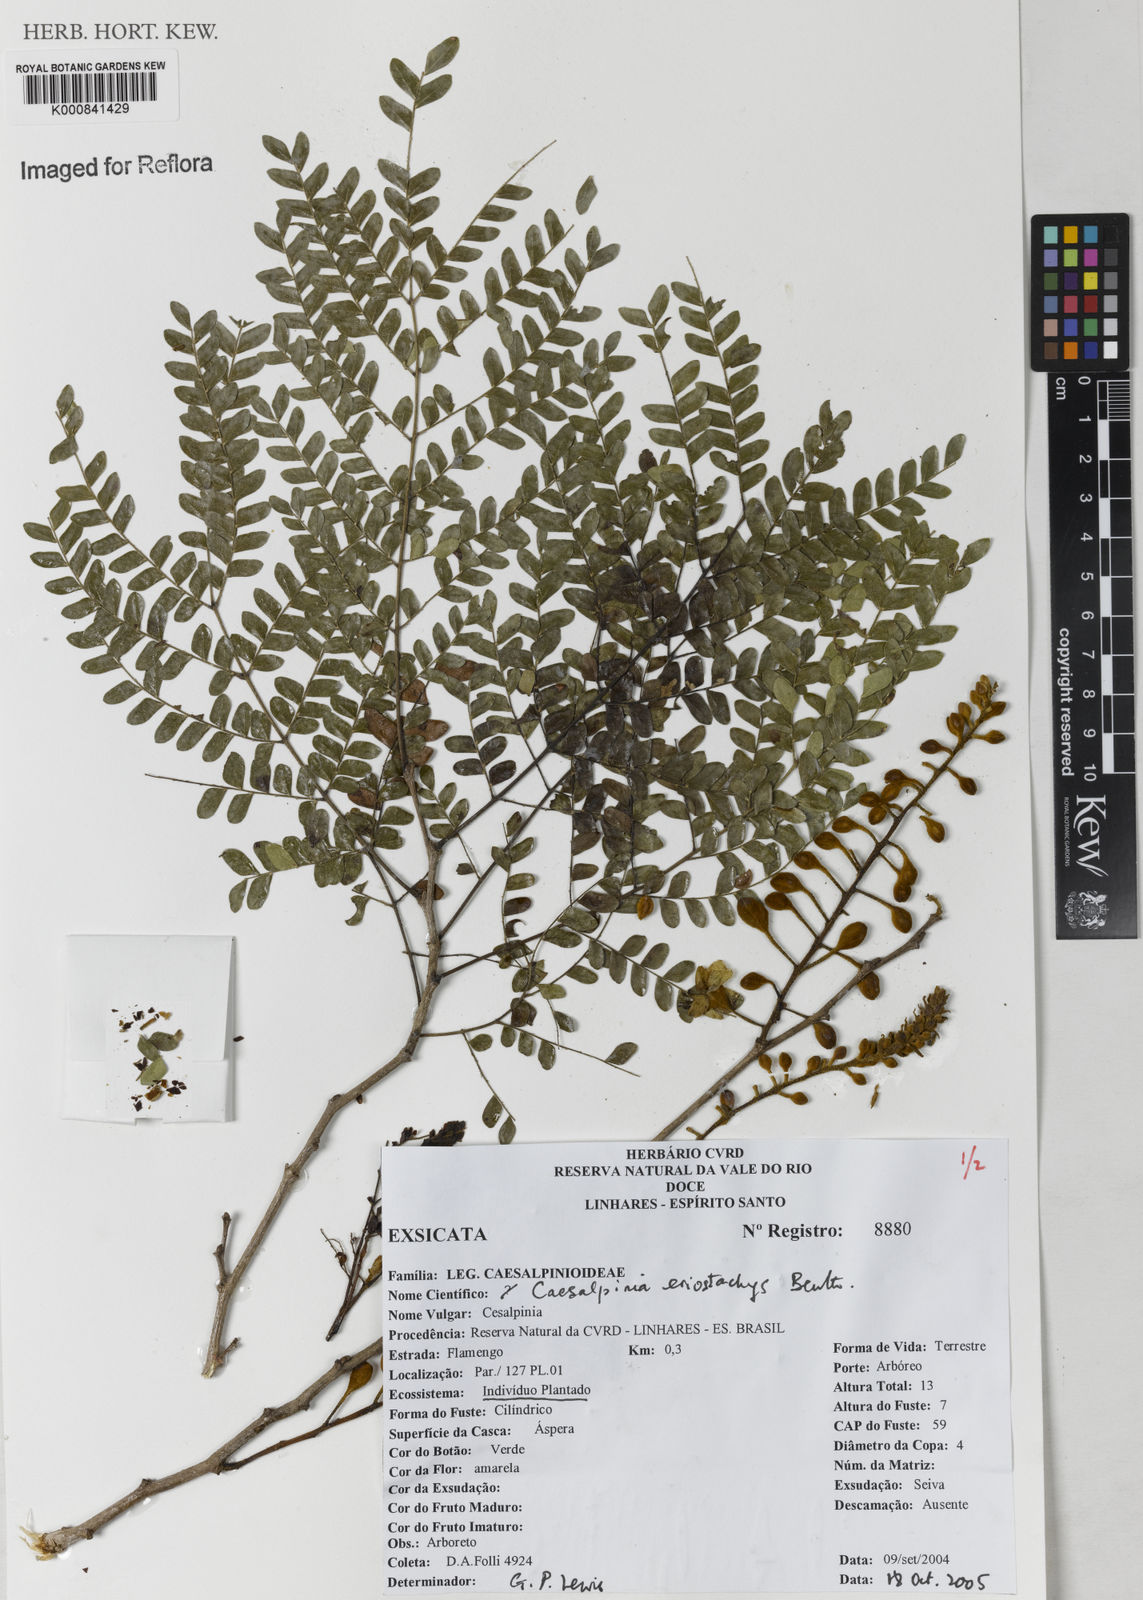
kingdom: Plantae
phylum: Tracheophyta
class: Magnoliopsida
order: Fabales
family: Fabaceae
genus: Cenostigma
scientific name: Cenostigma eriostachys
